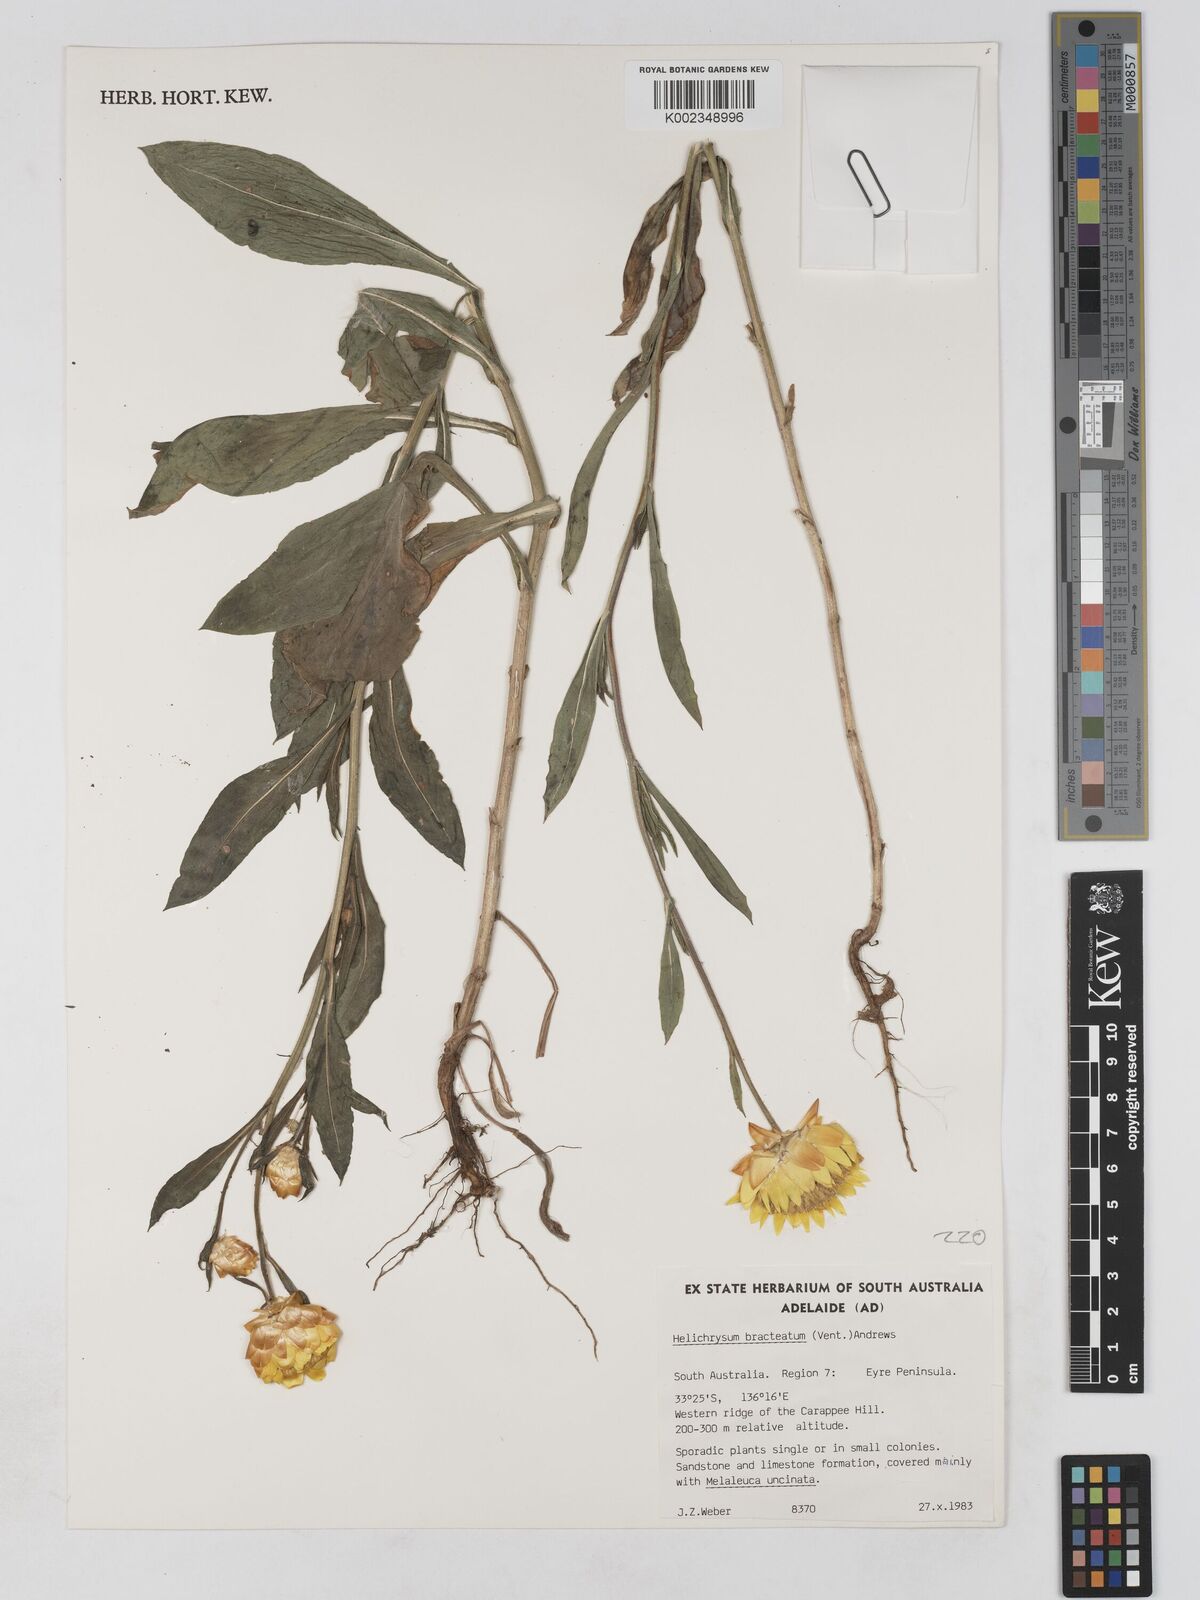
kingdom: Plantae
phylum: Tracheophyta
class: Magnoliopsida
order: Asterales
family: Asteraceae
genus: Xerochrysum
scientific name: Xerochrysum bracteatum
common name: Bracted strawflower
